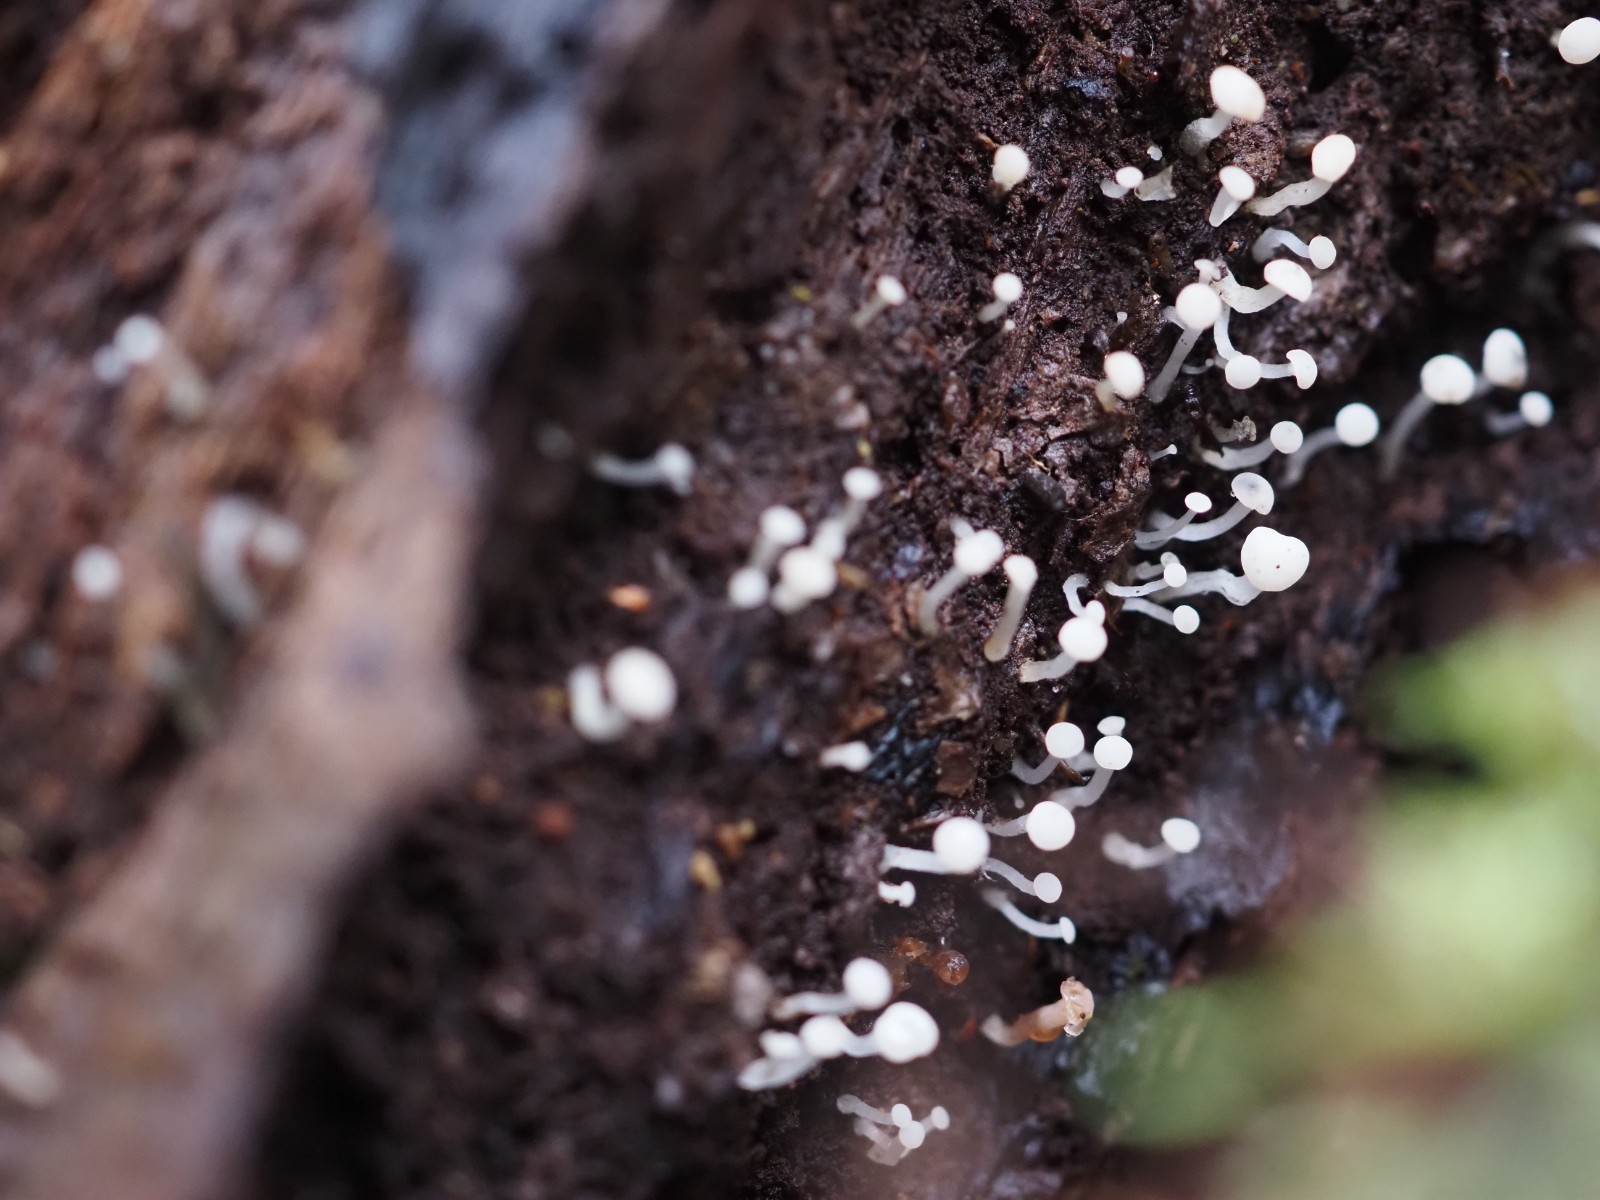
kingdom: Fungi
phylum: Ascomycota
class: Leotiomycetes
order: Helotiales
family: Tricladiaceae
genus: Cudoniella
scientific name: Cudoniella acicularis
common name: ege-dyndskive
